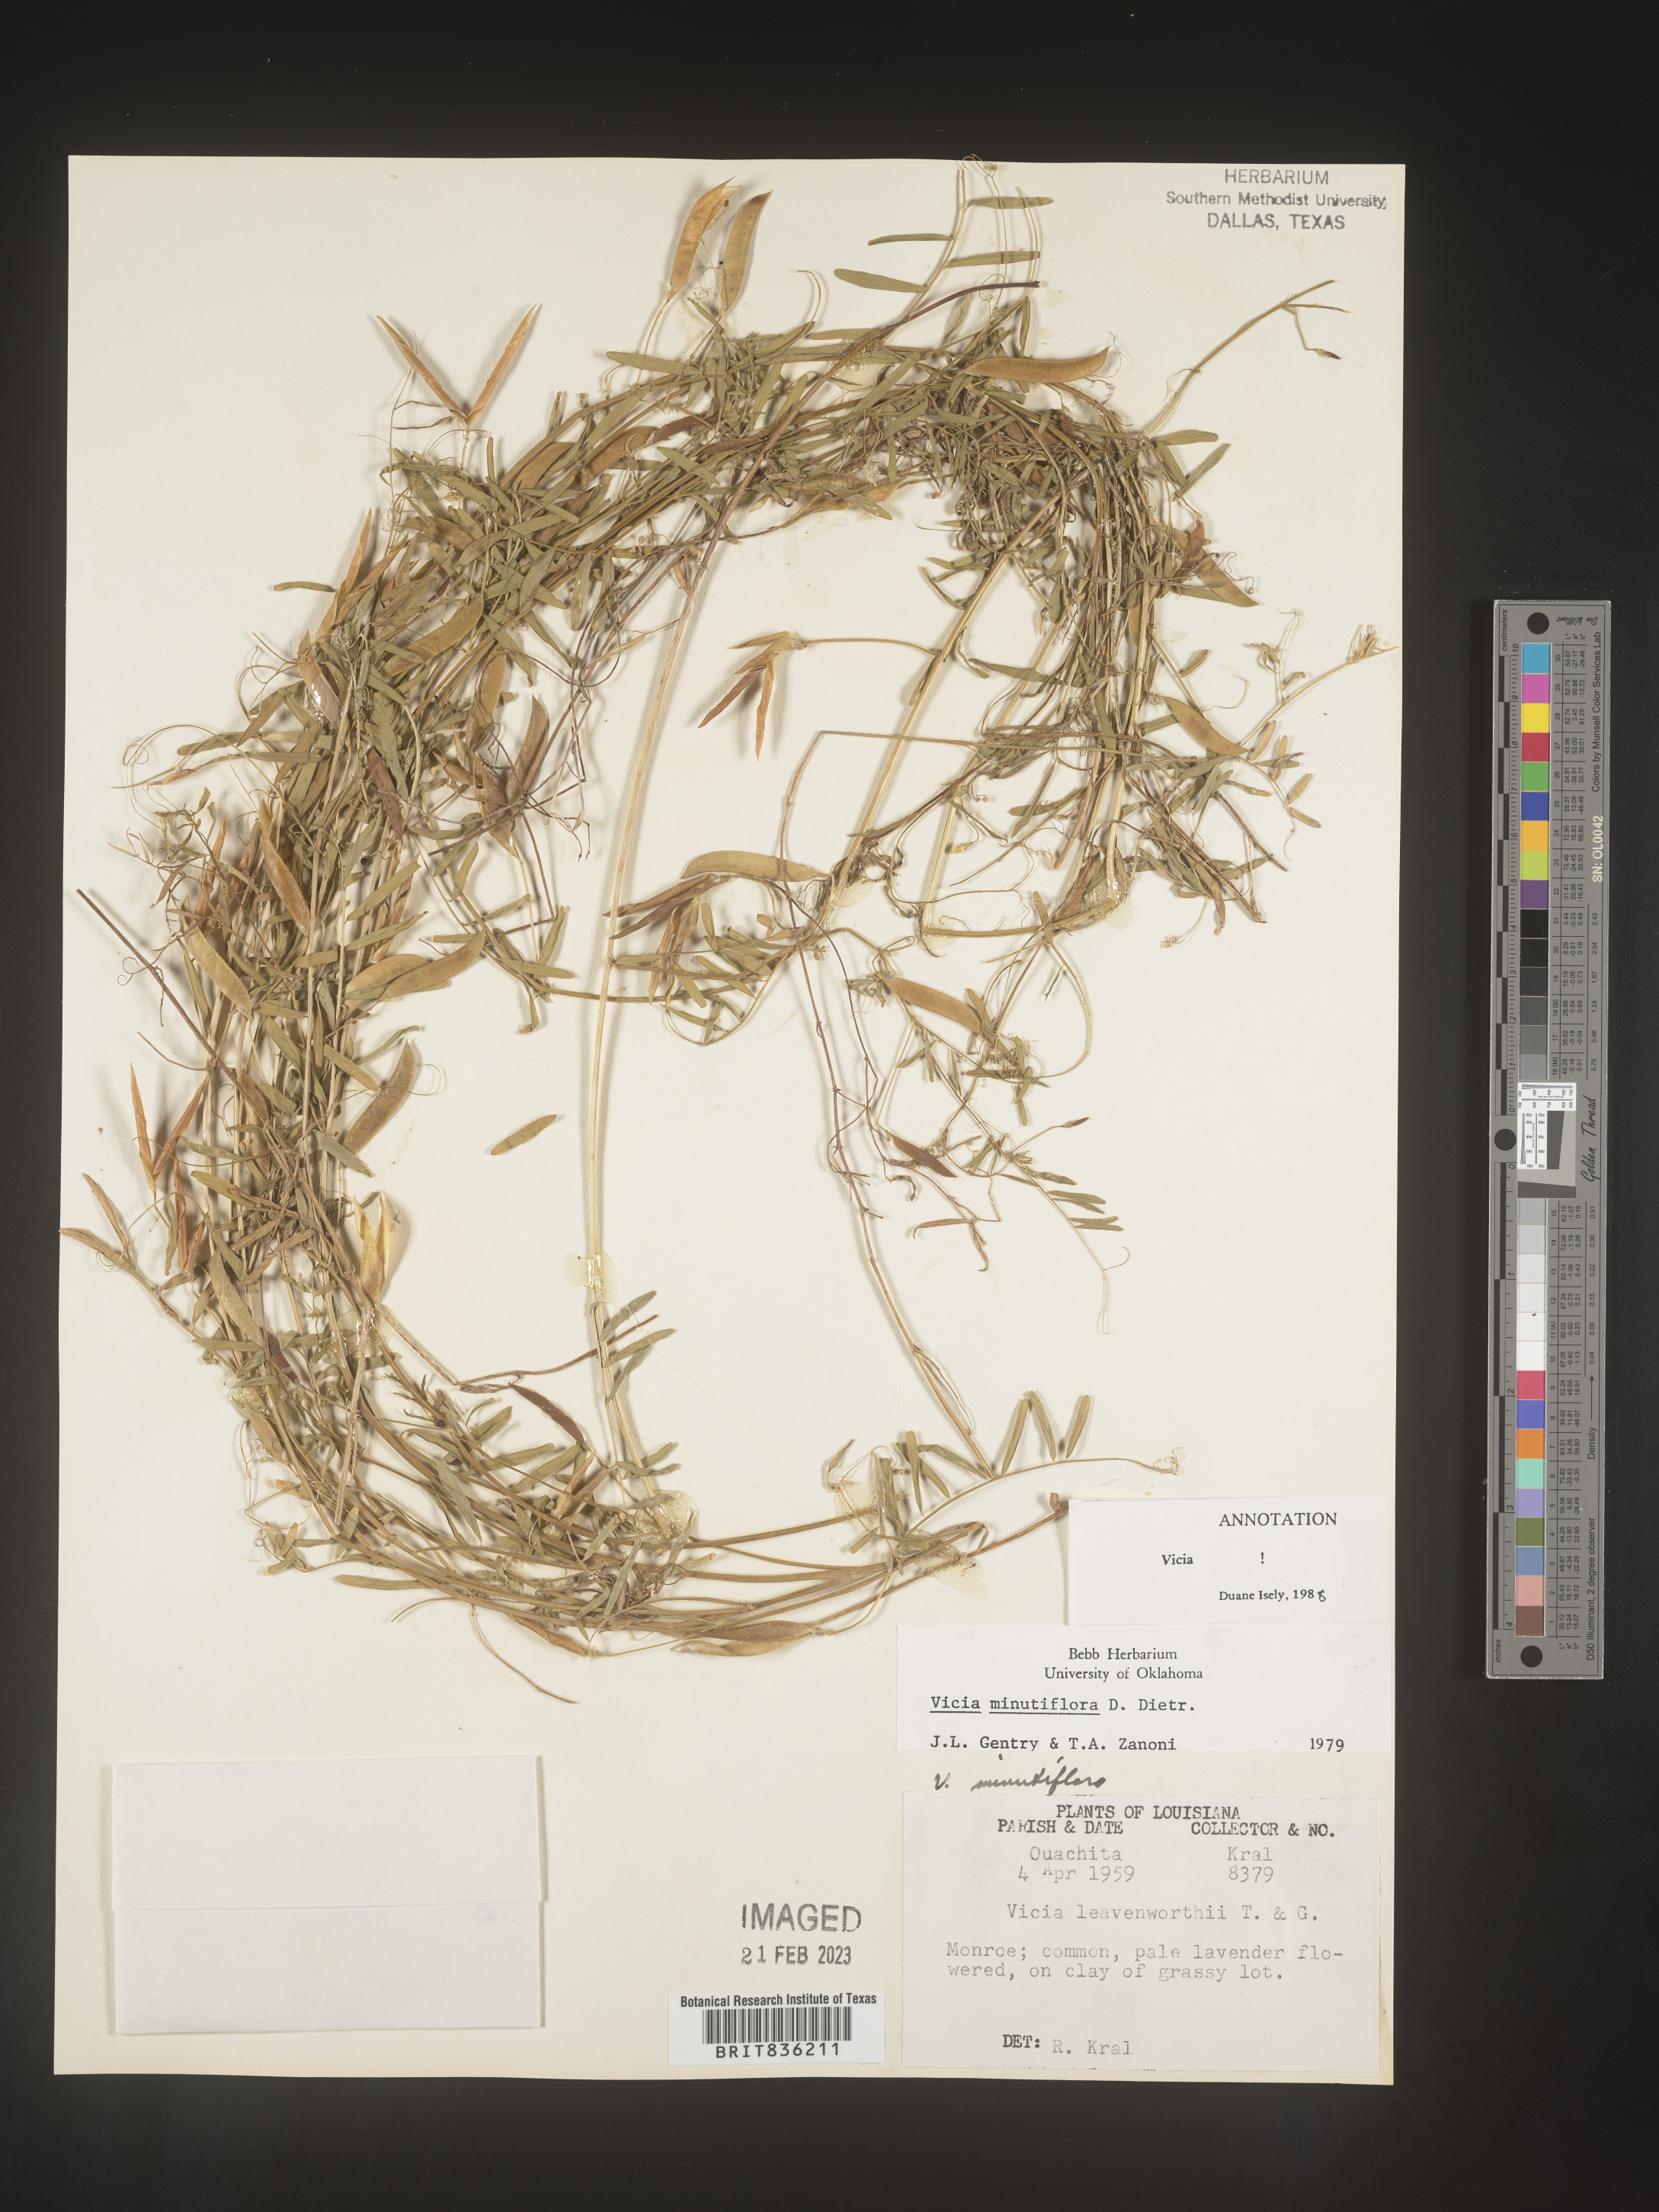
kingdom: Plantae
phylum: Tracheophyta
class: Magnoliopsida
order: Fabales
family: Fabaceae
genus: Vicia
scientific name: Vicia minutiflora
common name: Pygmy-flower vetch
